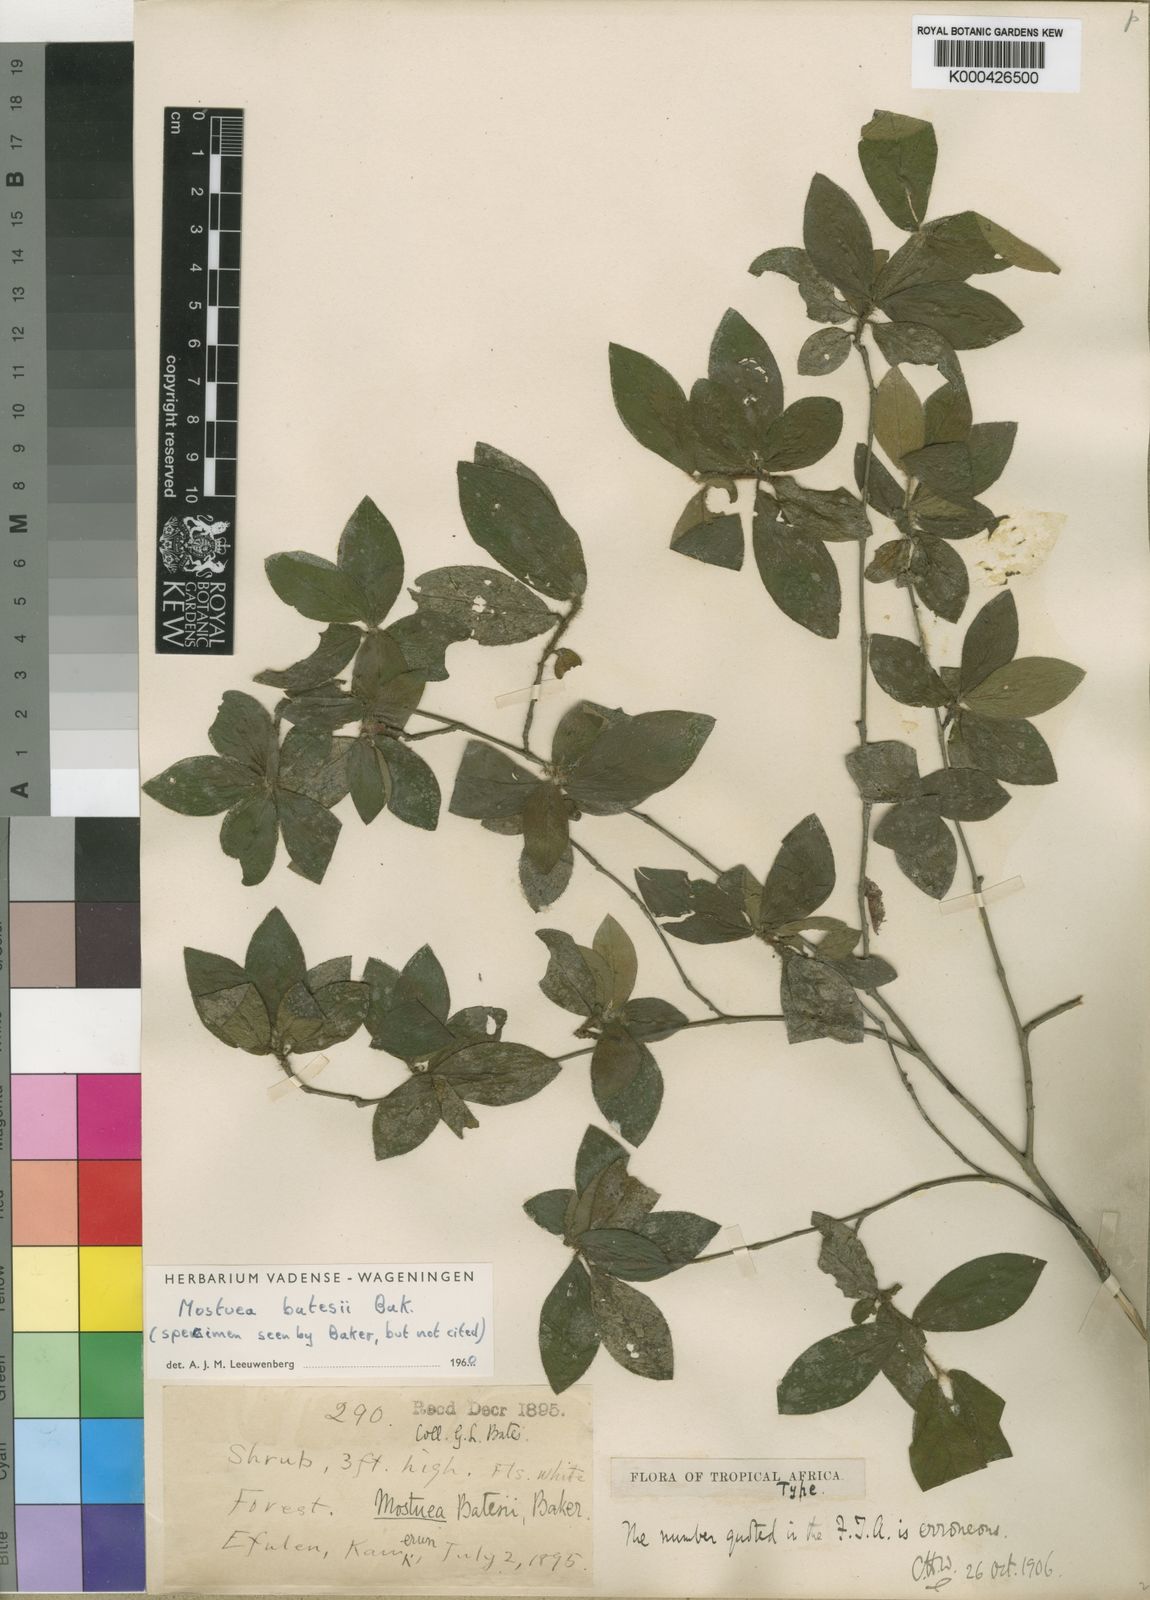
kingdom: Plantae
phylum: Tracheophyta
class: Magnoliopsida
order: Gentianales
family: Gelsemiaceae
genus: Mostuea
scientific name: Mostuea batesii
